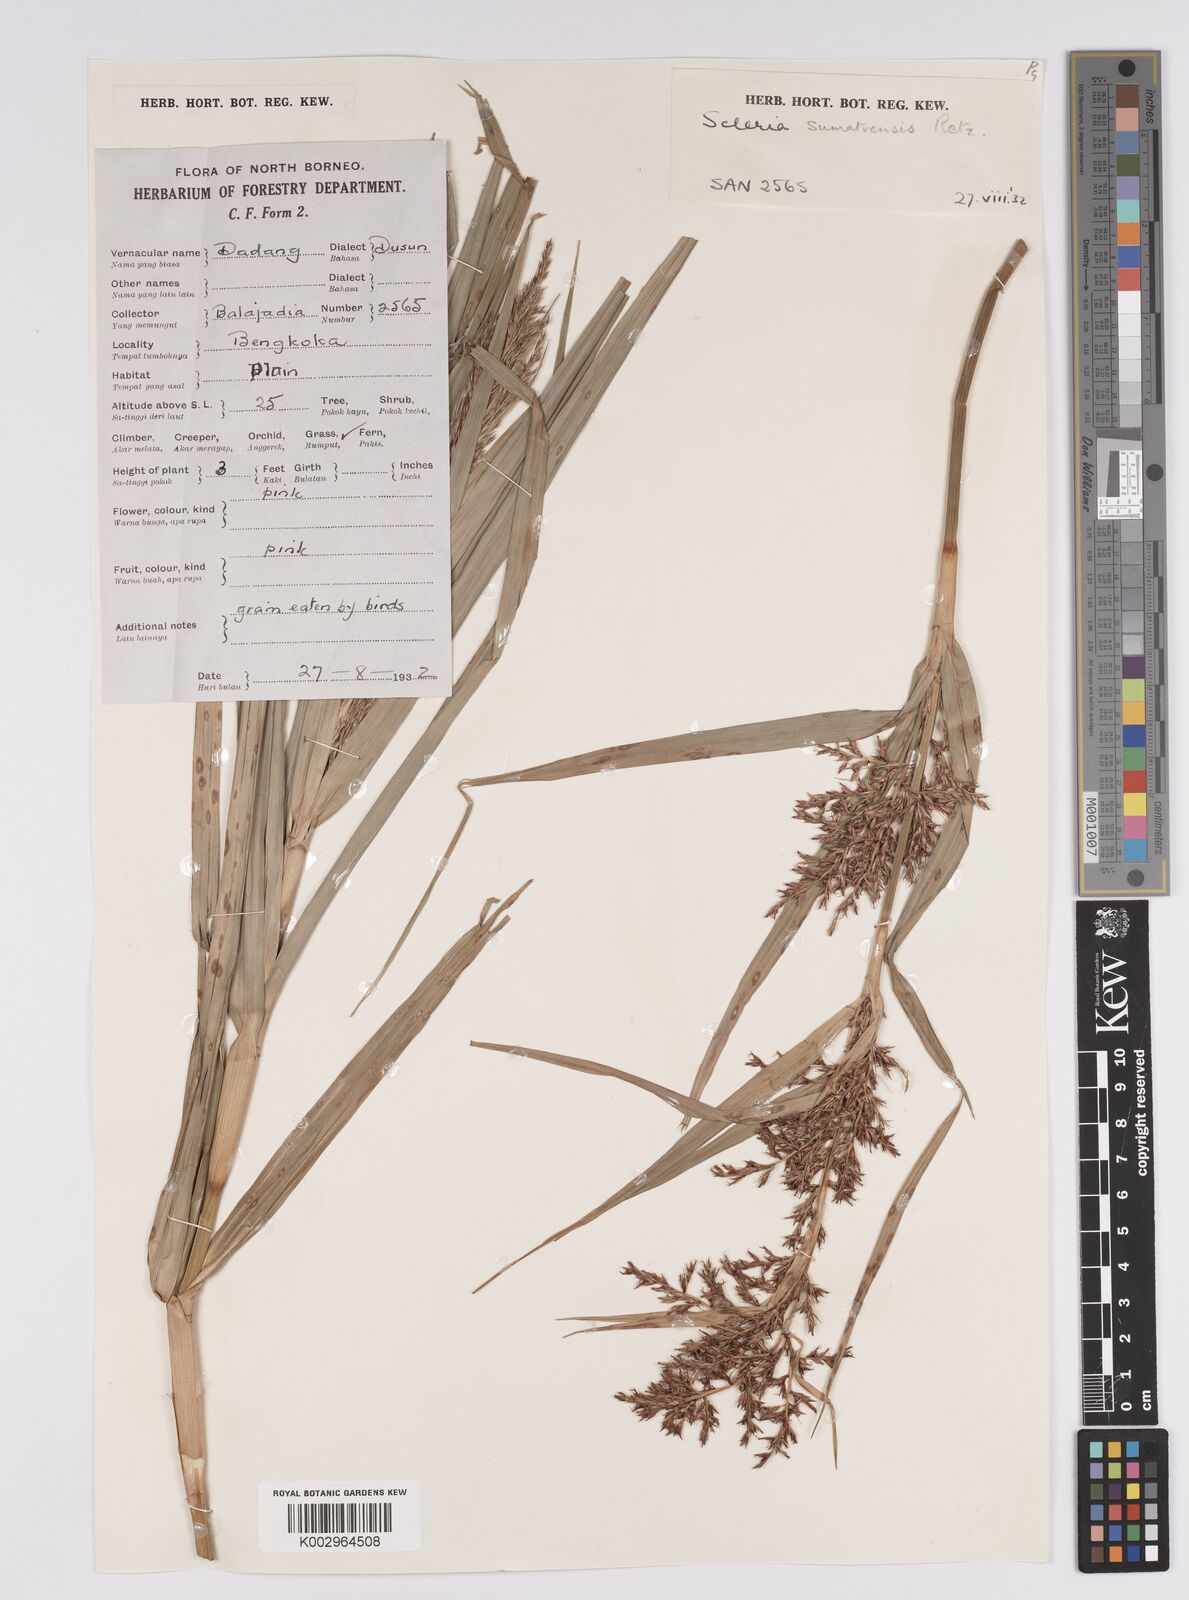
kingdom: Plantae
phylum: Tracheophyta
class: Liliopsida
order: Poales
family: Cyperaceae
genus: Scleria
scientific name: Scleria sumatrensis
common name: Sumatran scleria
